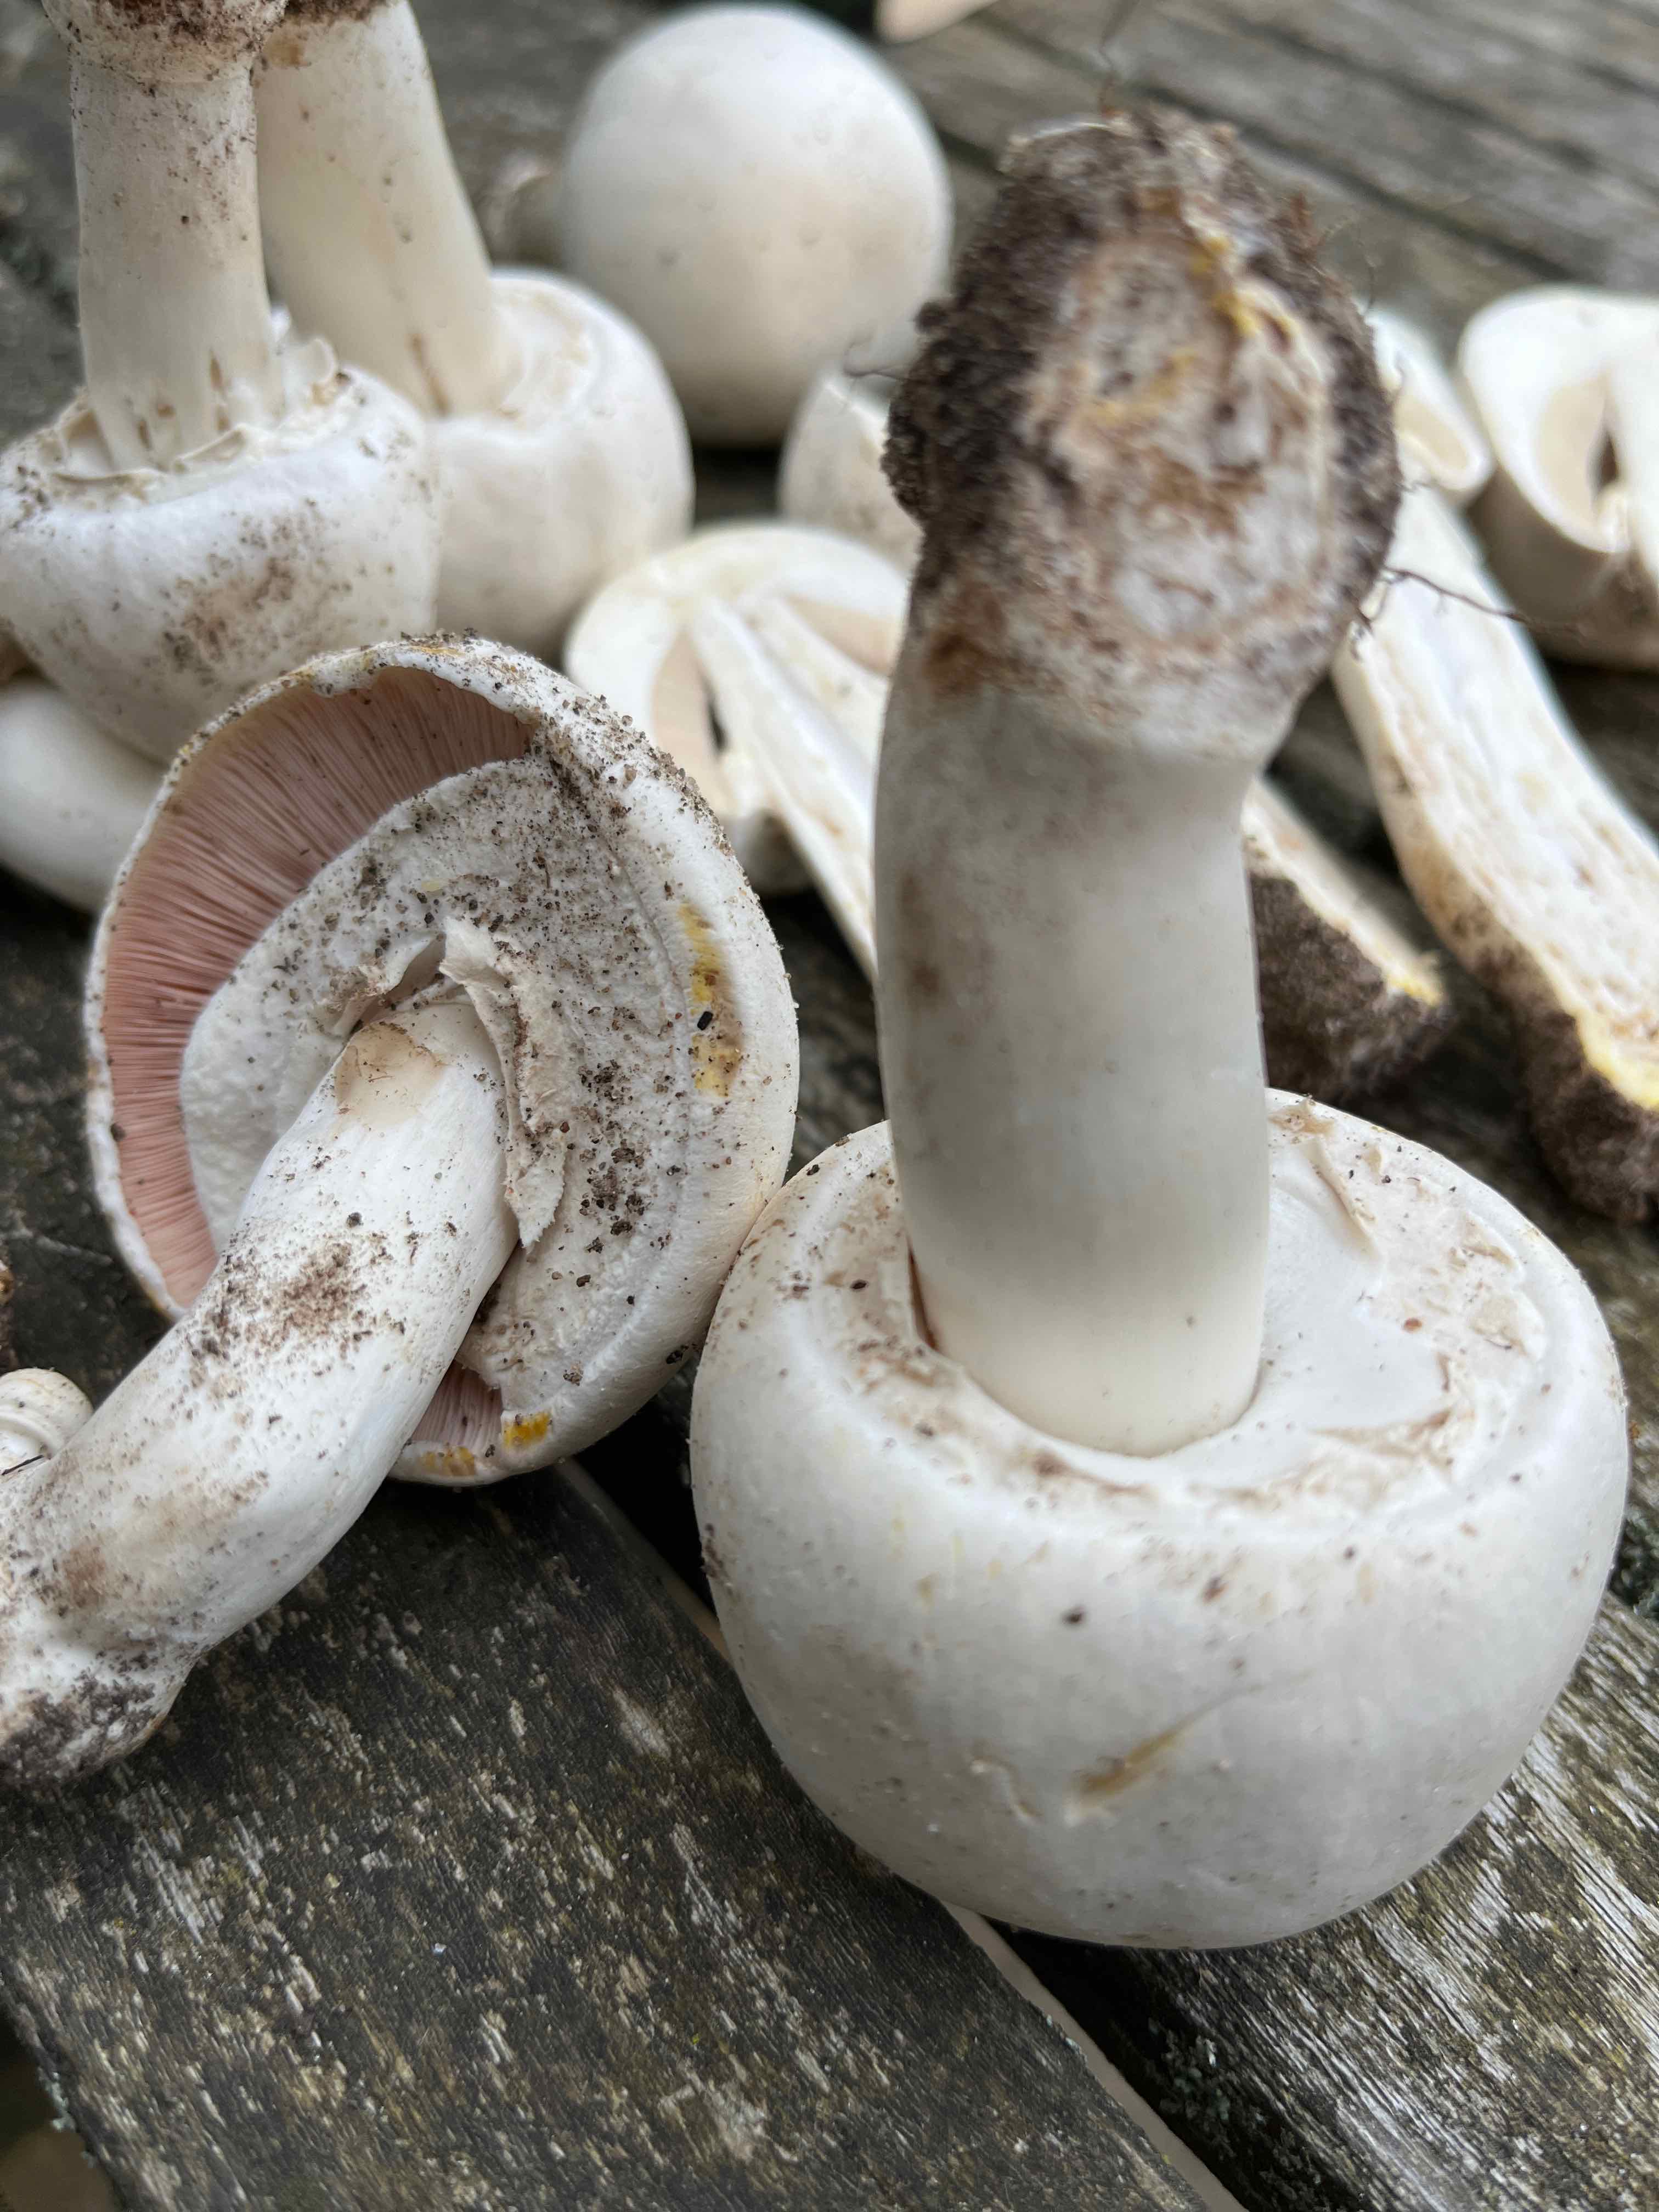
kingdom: Fungi
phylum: Basidiomycota
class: Agaricomycetes
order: Agaricales
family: Agaricaceae
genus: Agaricus
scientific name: Agaricus xanthodermus
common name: karbol-champignon
